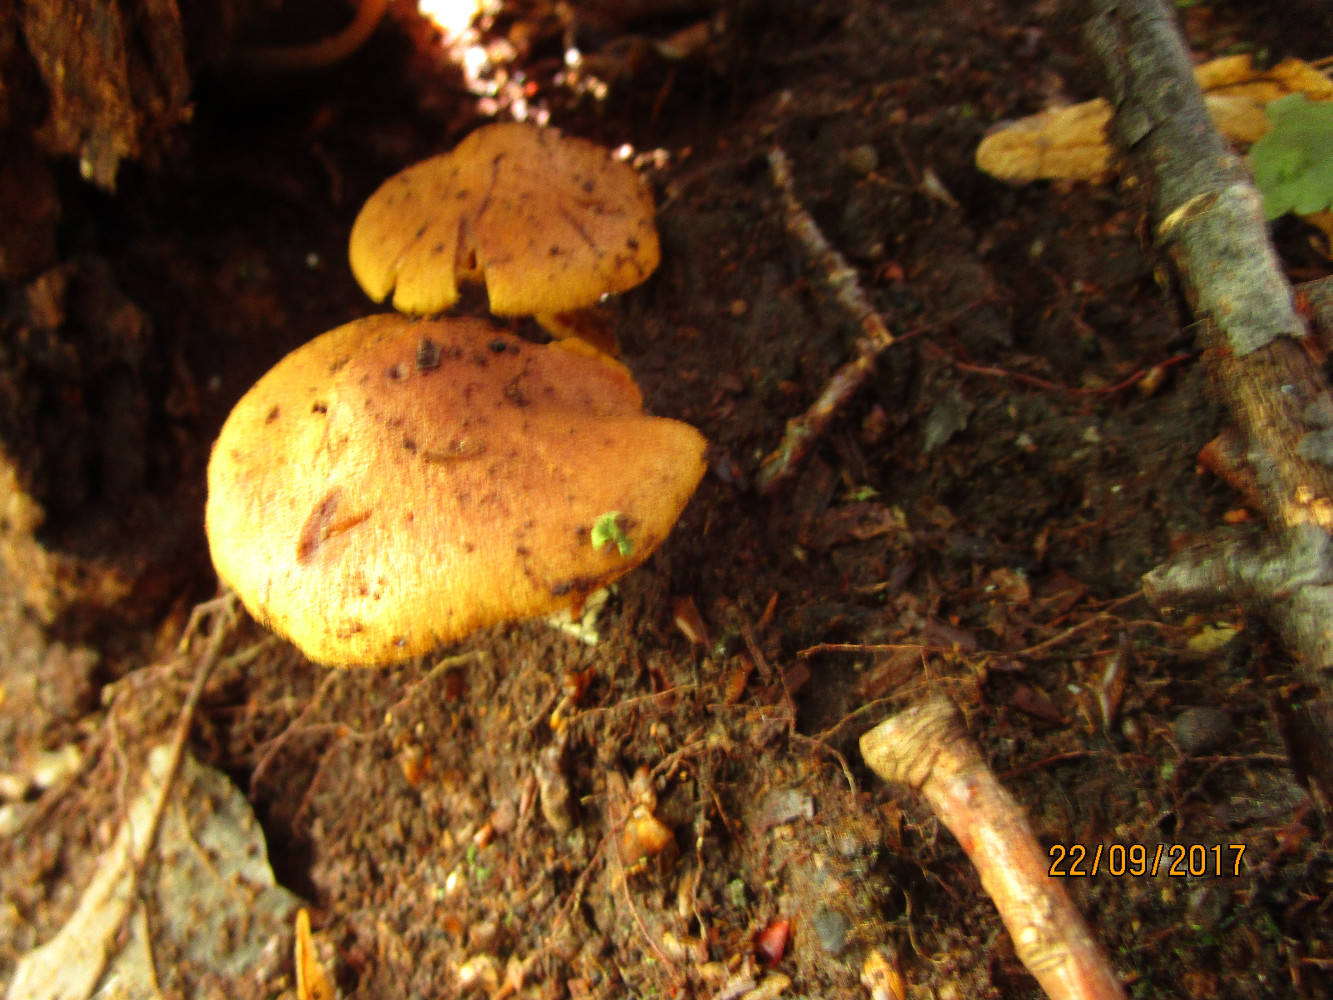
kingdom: Fungi
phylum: Basidiomycota
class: Agaricomycetes
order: Agaricales
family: Hymenogastraceae
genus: Gymnopilus
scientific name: Gymnopilus penetrans
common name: plettet flammehat
